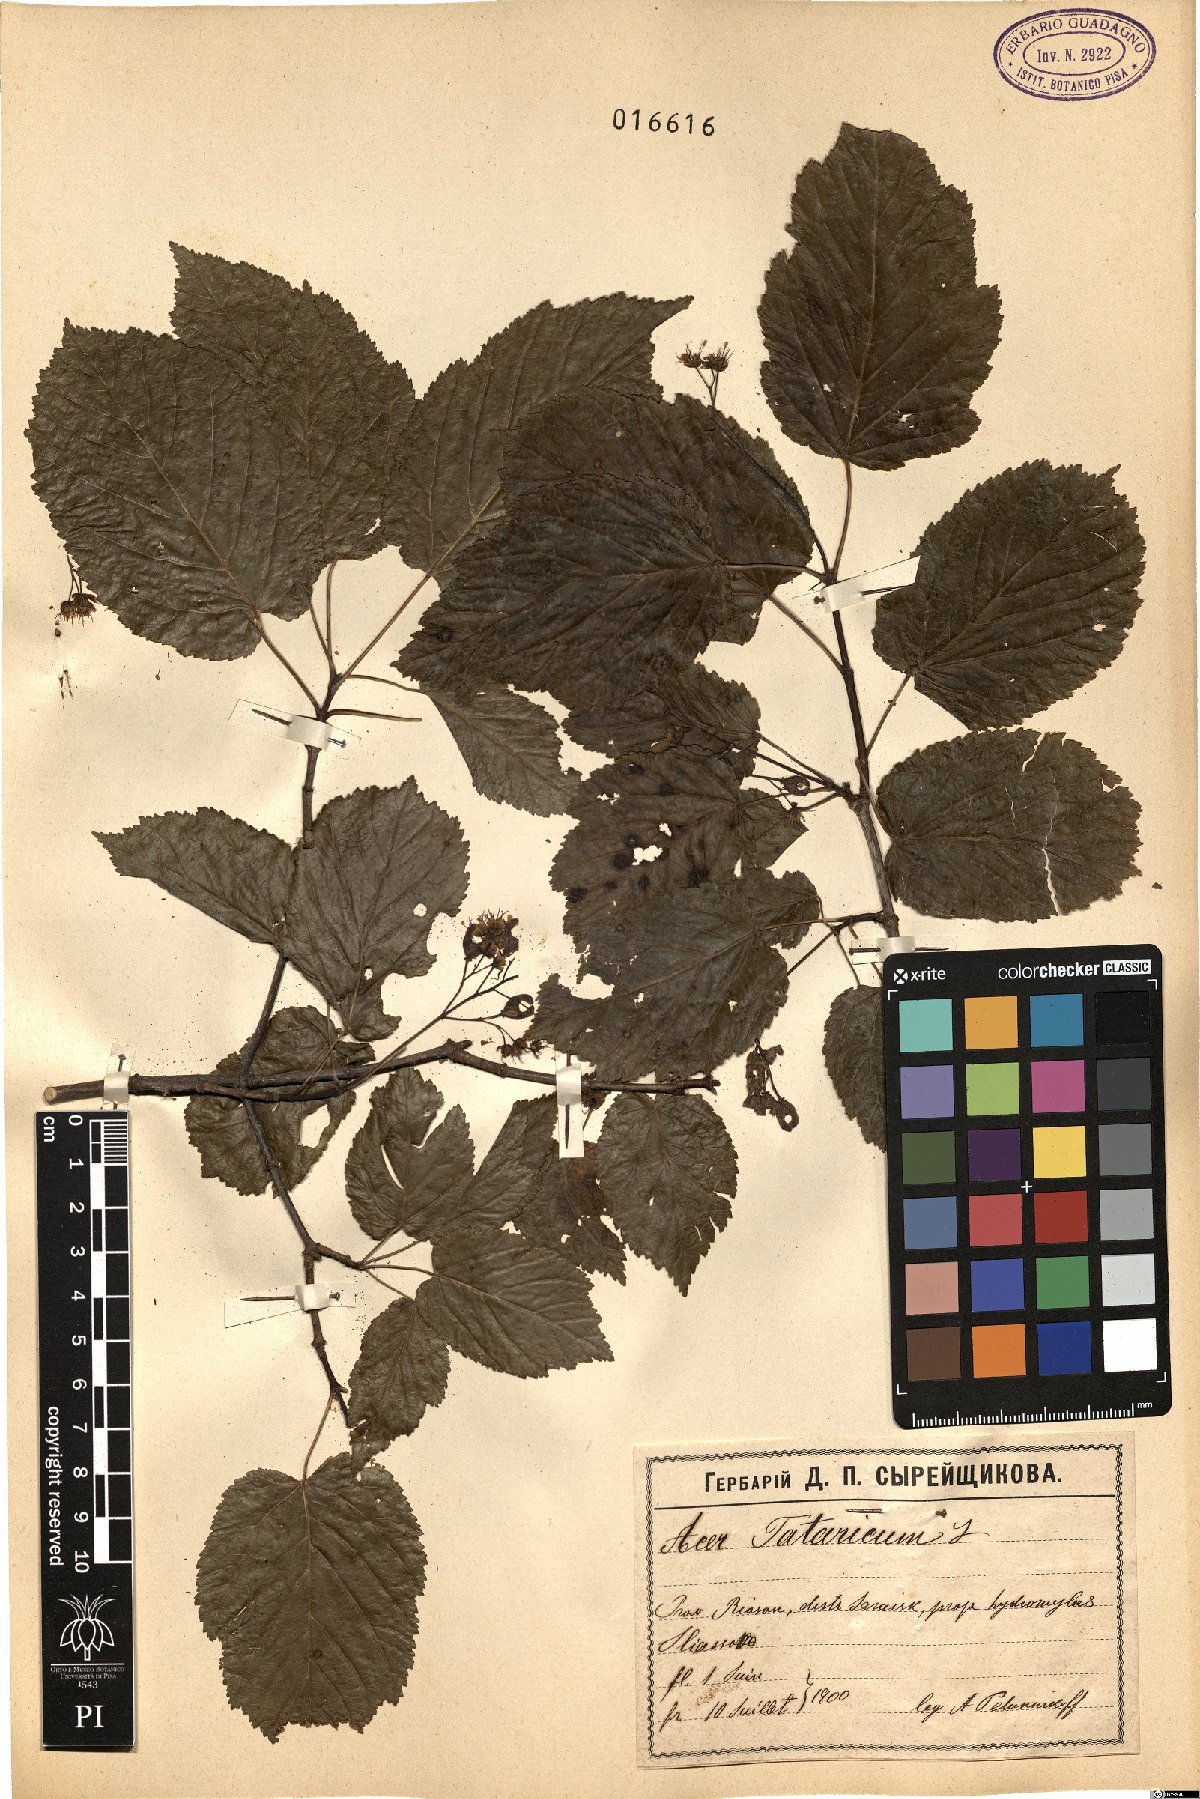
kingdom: Plantae
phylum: Tracheophyta
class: Magnoliopsida
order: Sapindales
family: Sapindaceae
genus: Acer
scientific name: Acer tataricum
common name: Tartar maple
